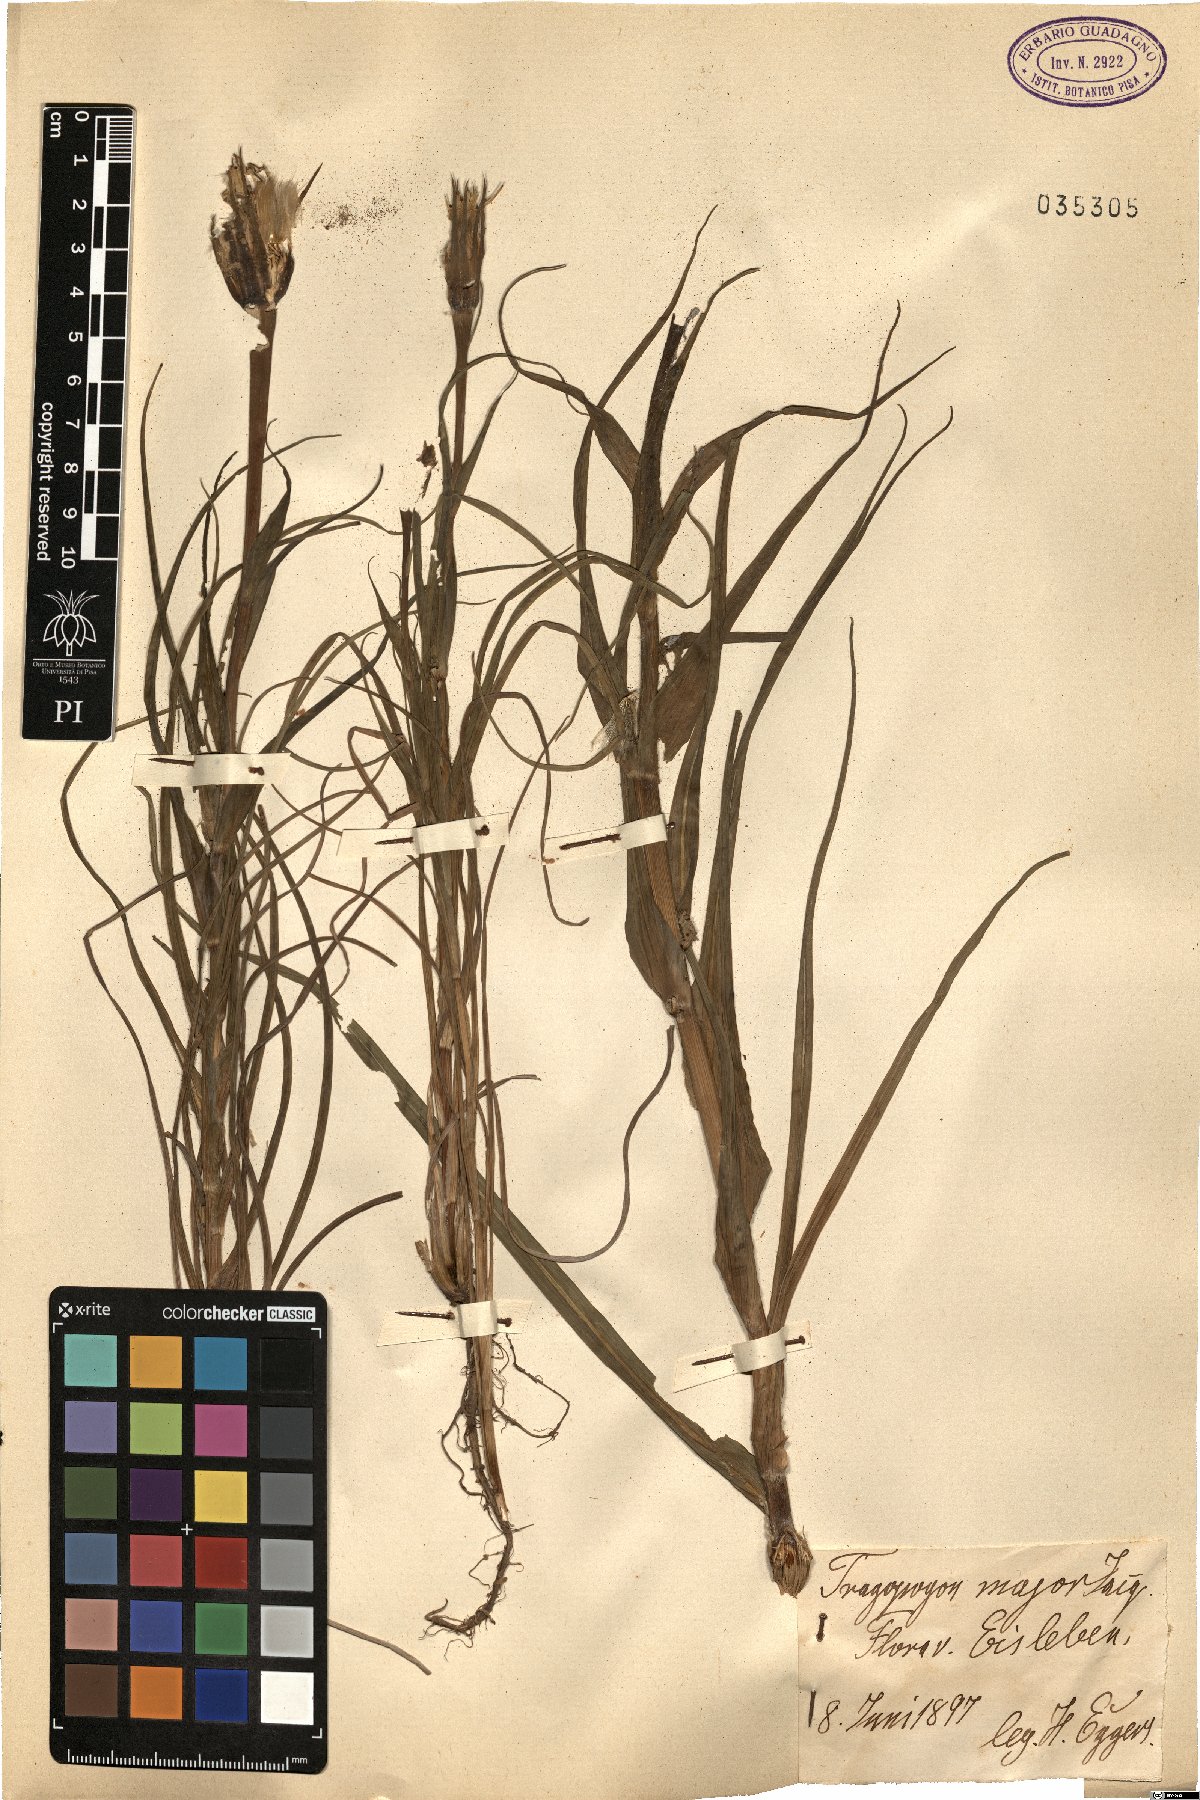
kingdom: Plantae
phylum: Tracheophyta
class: Magnoliopsida
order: Asterales
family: Asteraceae
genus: Tragopogon
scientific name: Tragopogon dubius
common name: Yellow salsify
